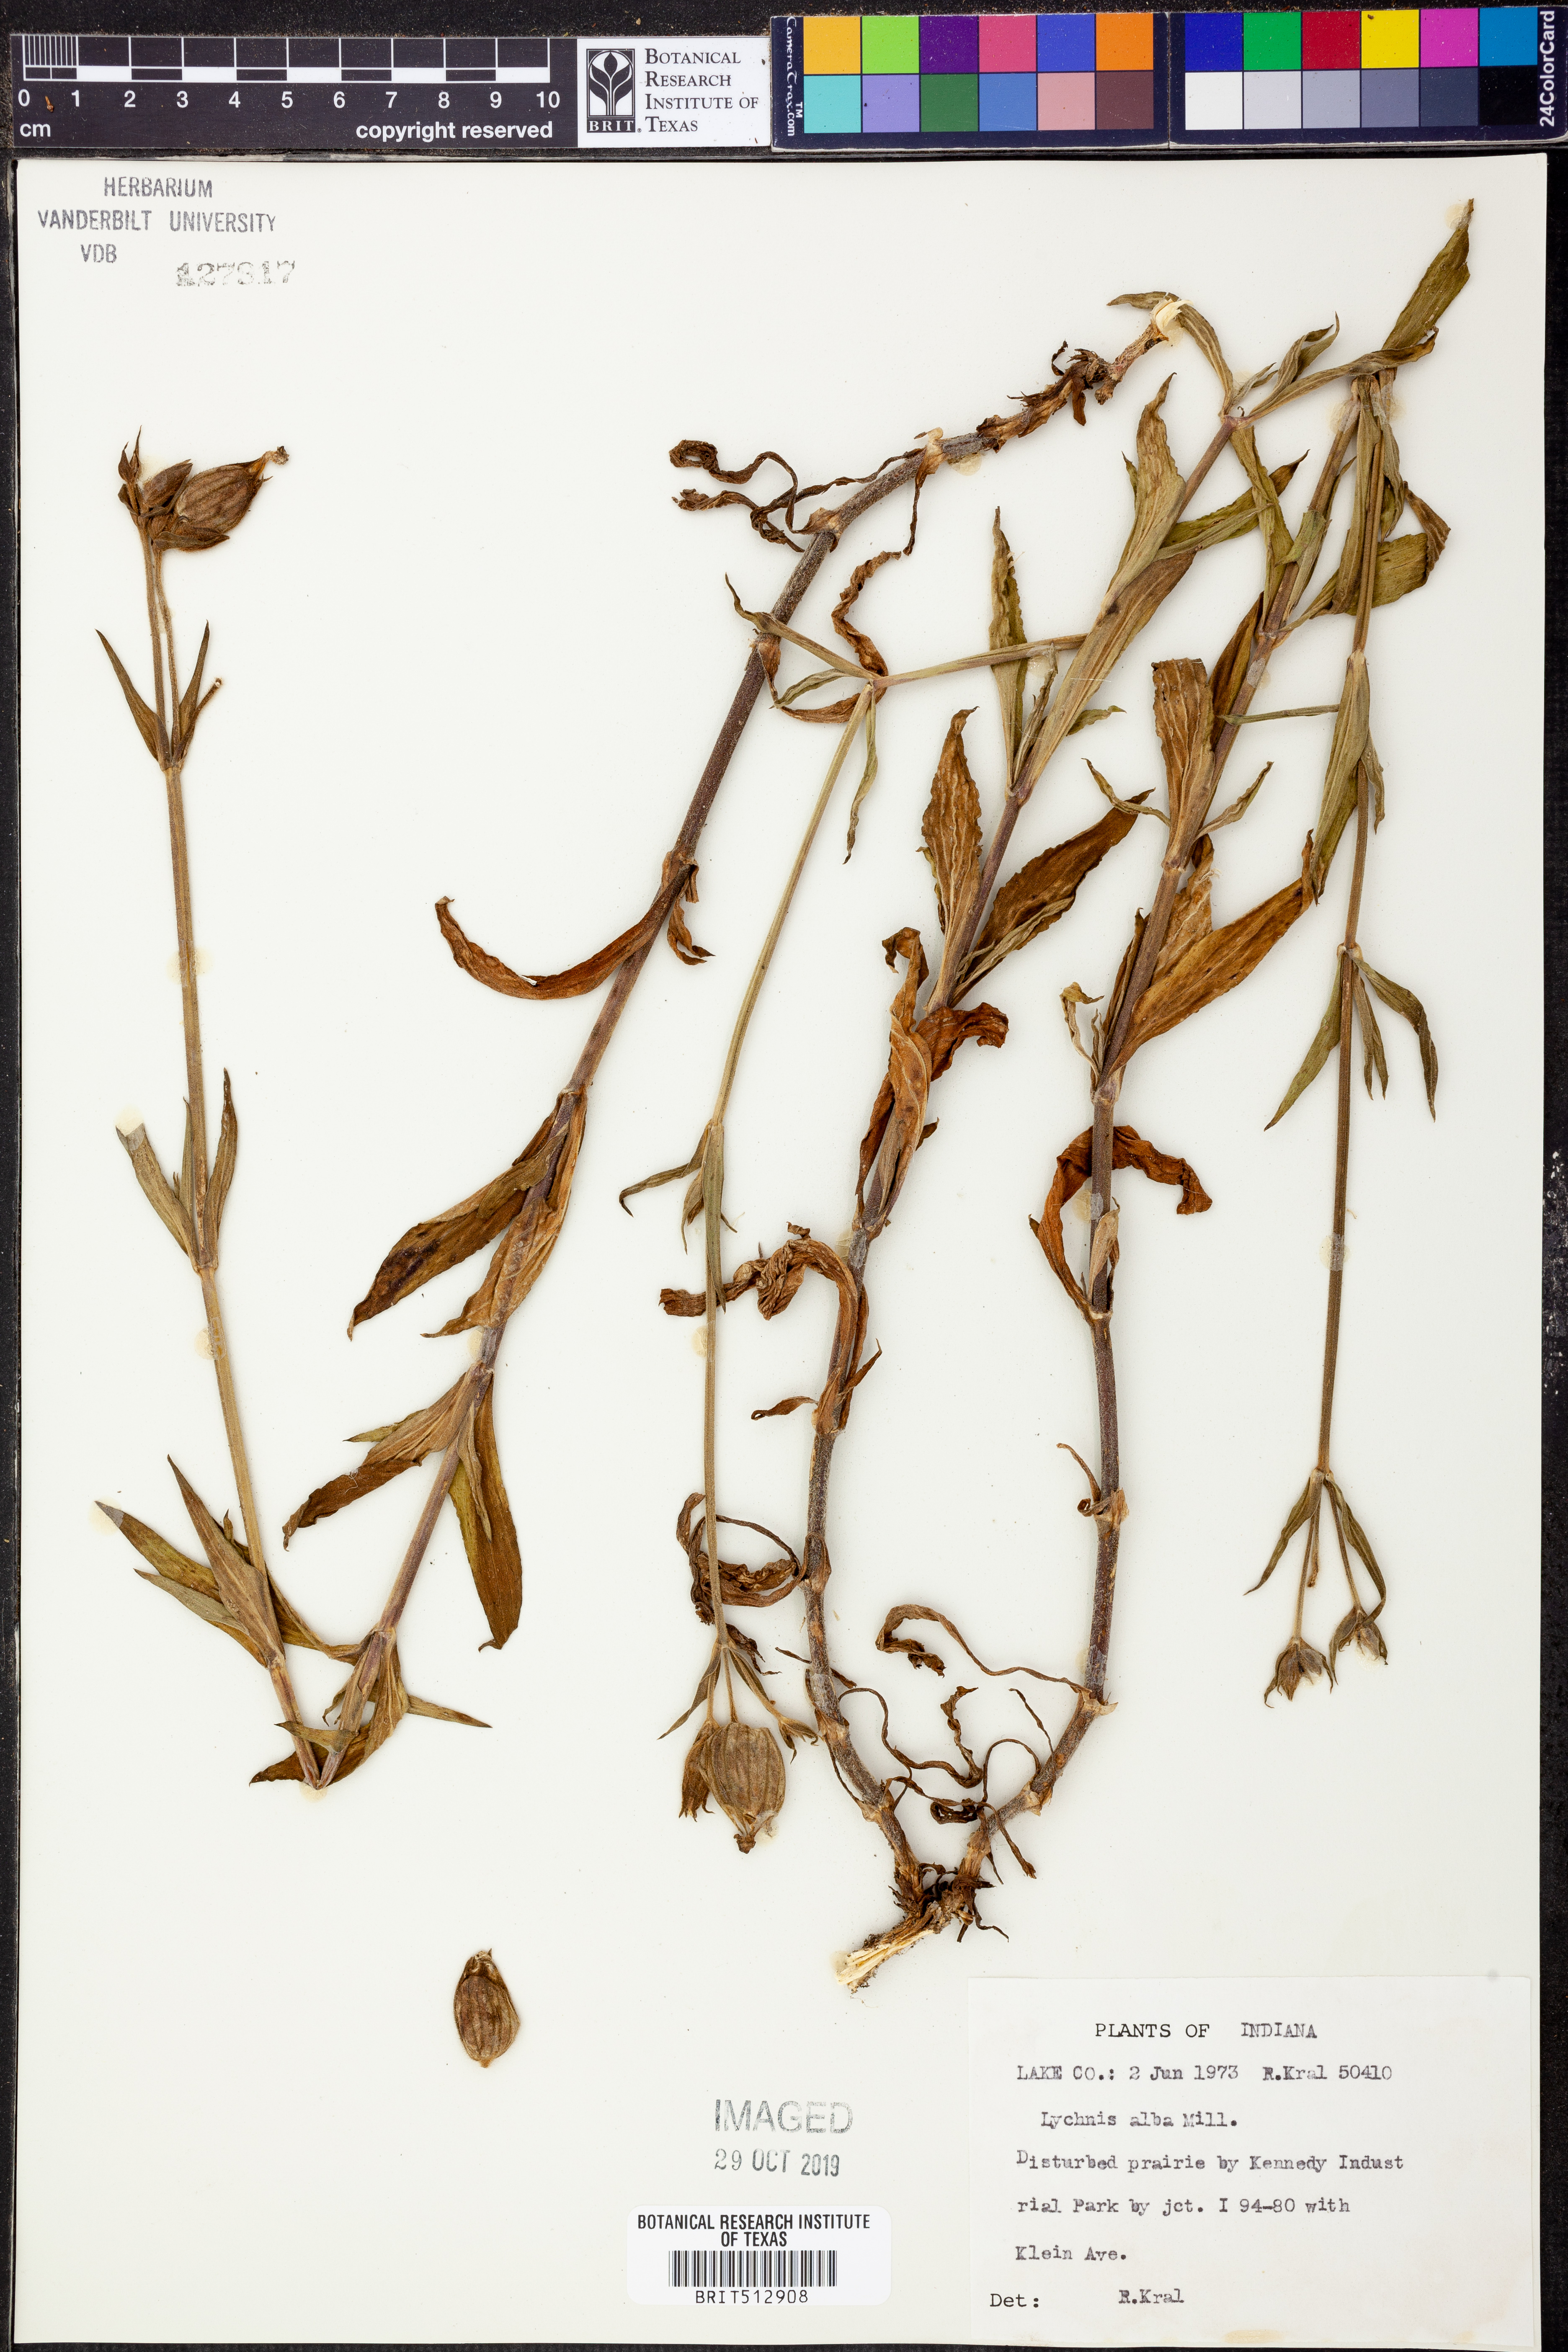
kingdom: Plantae
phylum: Tracheophyta
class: Magnoliopsida
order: Caryophyllales
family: Caryophyllaceae
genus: Silene
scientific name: Silene latifolia
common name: White campion
